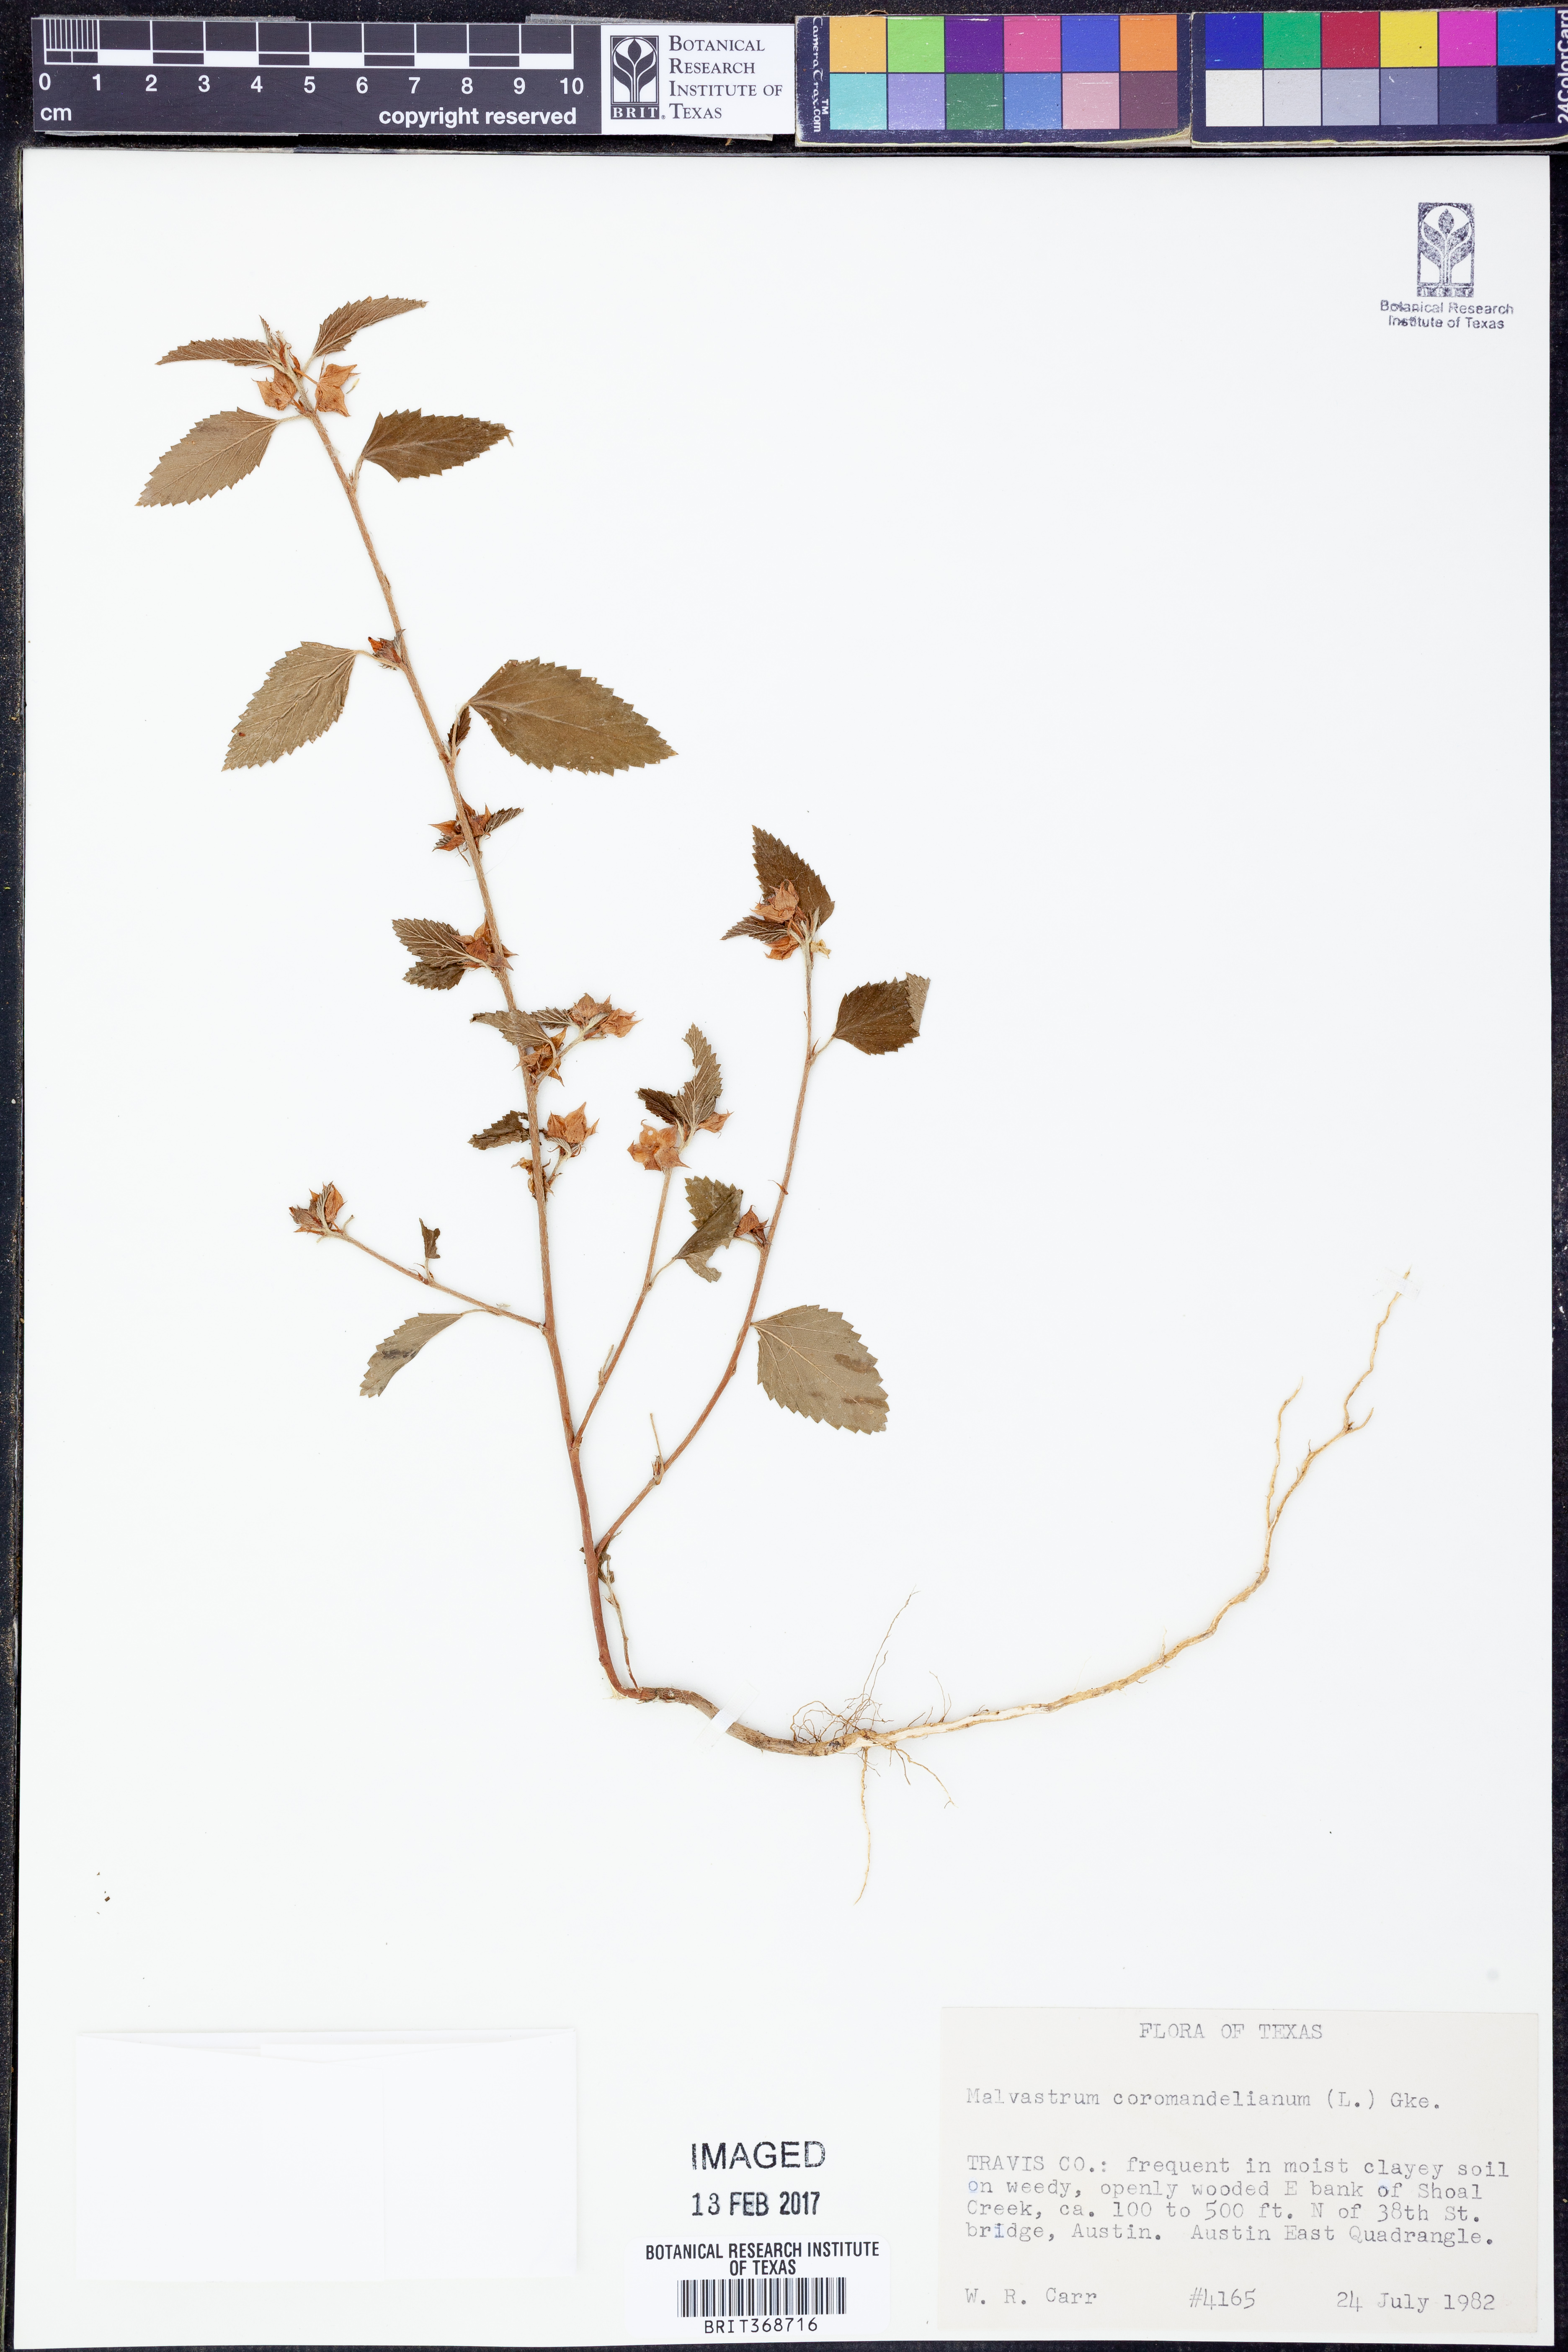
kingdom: Plantae
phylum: Tracheophyta
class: Magnoliopsida
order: Malvales
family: Malvaceae
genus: Malvastrum
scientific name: Malvastrum coromandelianum
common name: Threelobe false mallow
